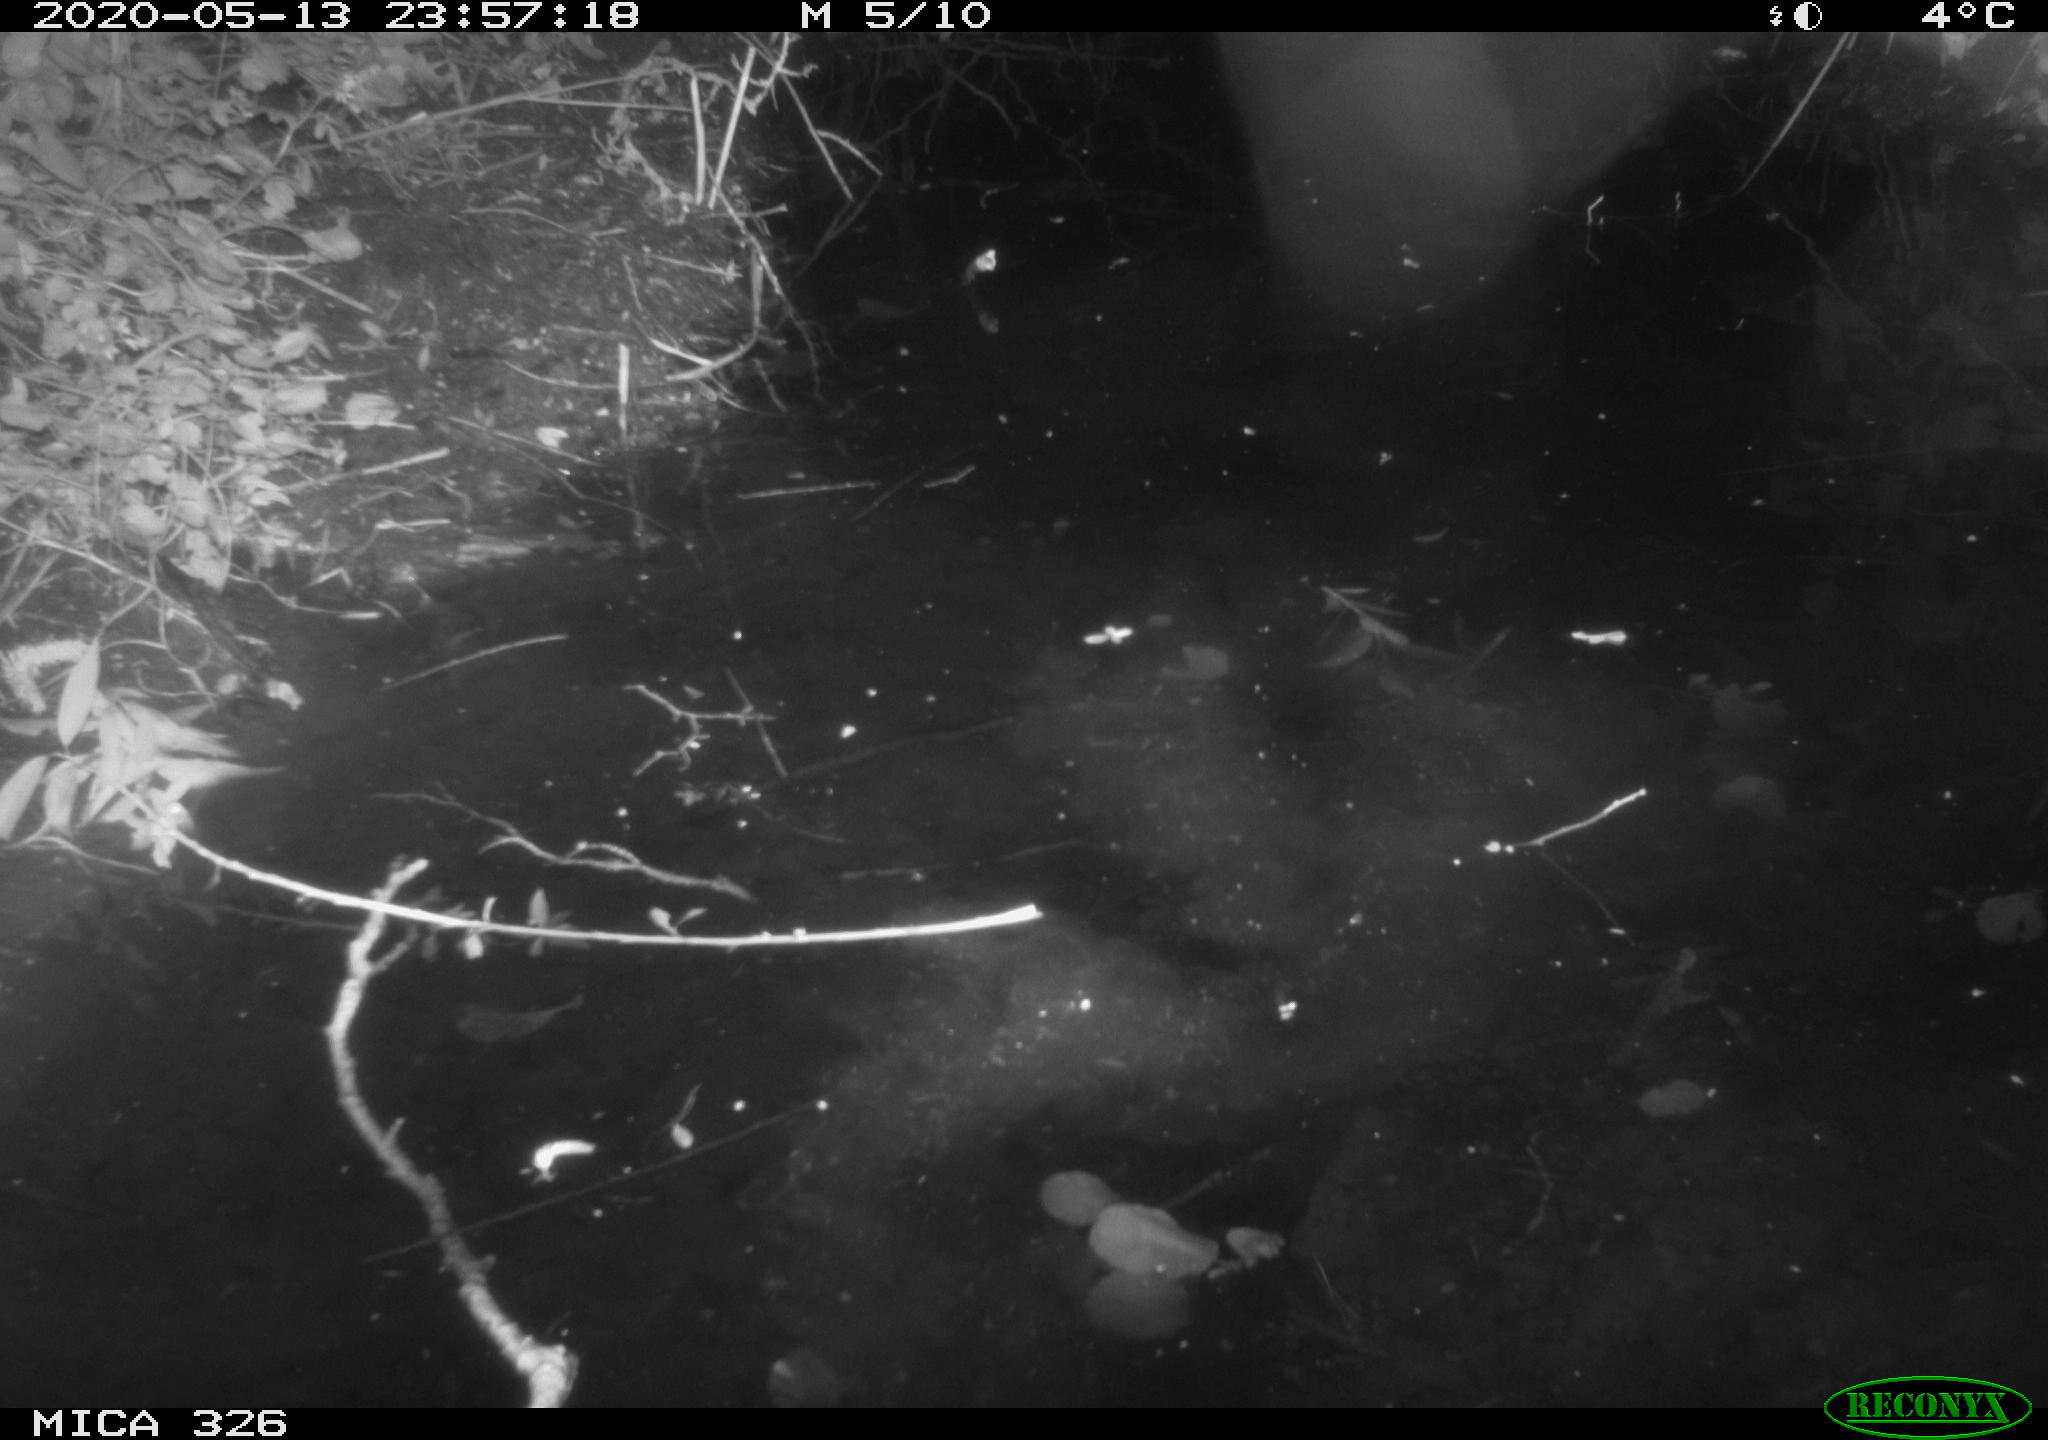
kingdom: Animalia
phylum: Chordata
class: Mammalia
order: Rodentia
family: Myocastoridae
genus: Myocastor
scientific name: Myocastor coypus
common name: Coypu
